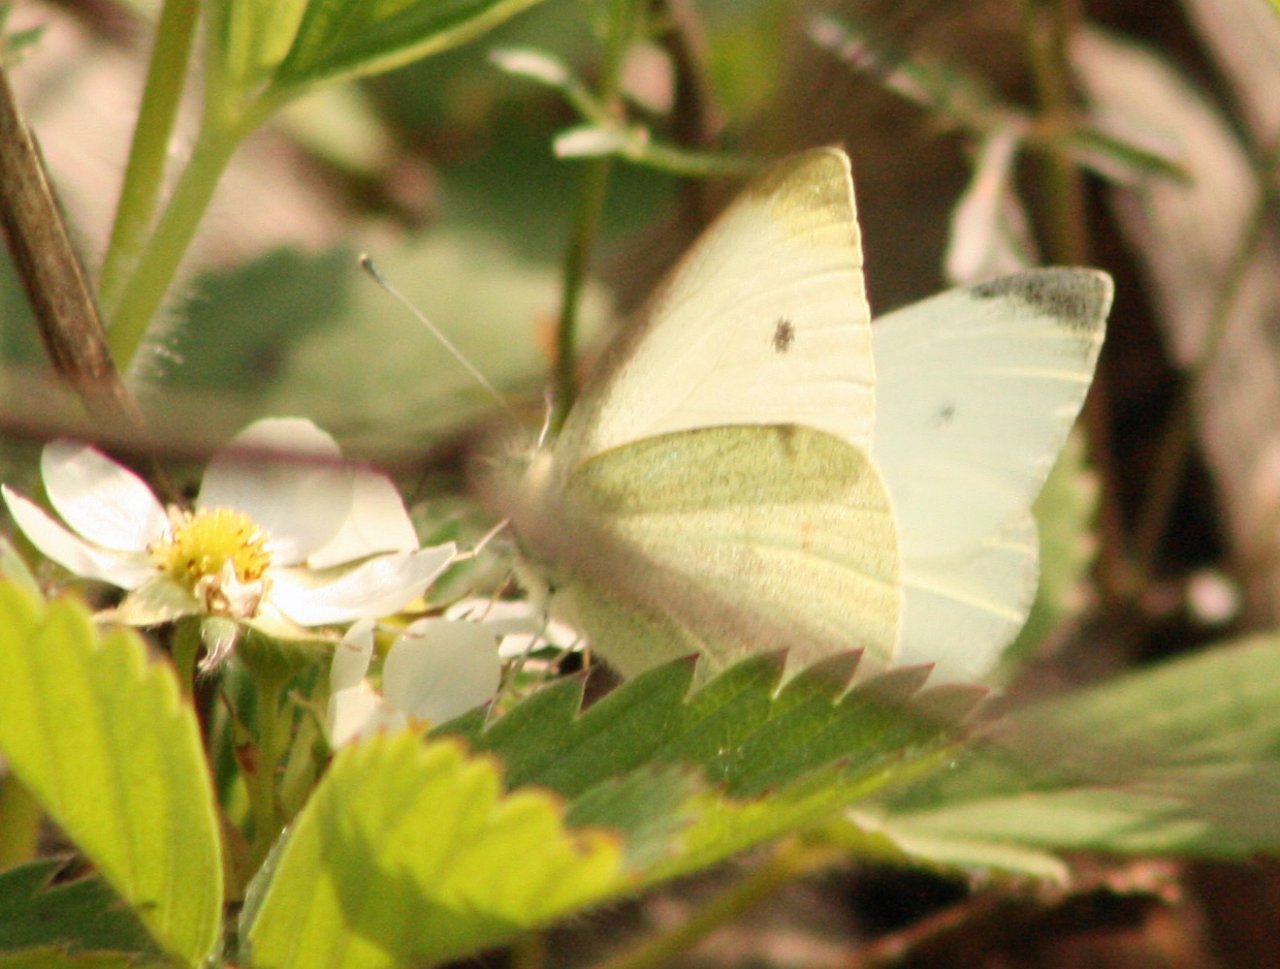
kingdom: Animalia
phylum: Arthropoda
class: Insecta
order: Lepidoptera
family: Pieridae
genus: Pieris
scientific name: Pieris rapae
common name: Cabbage White
